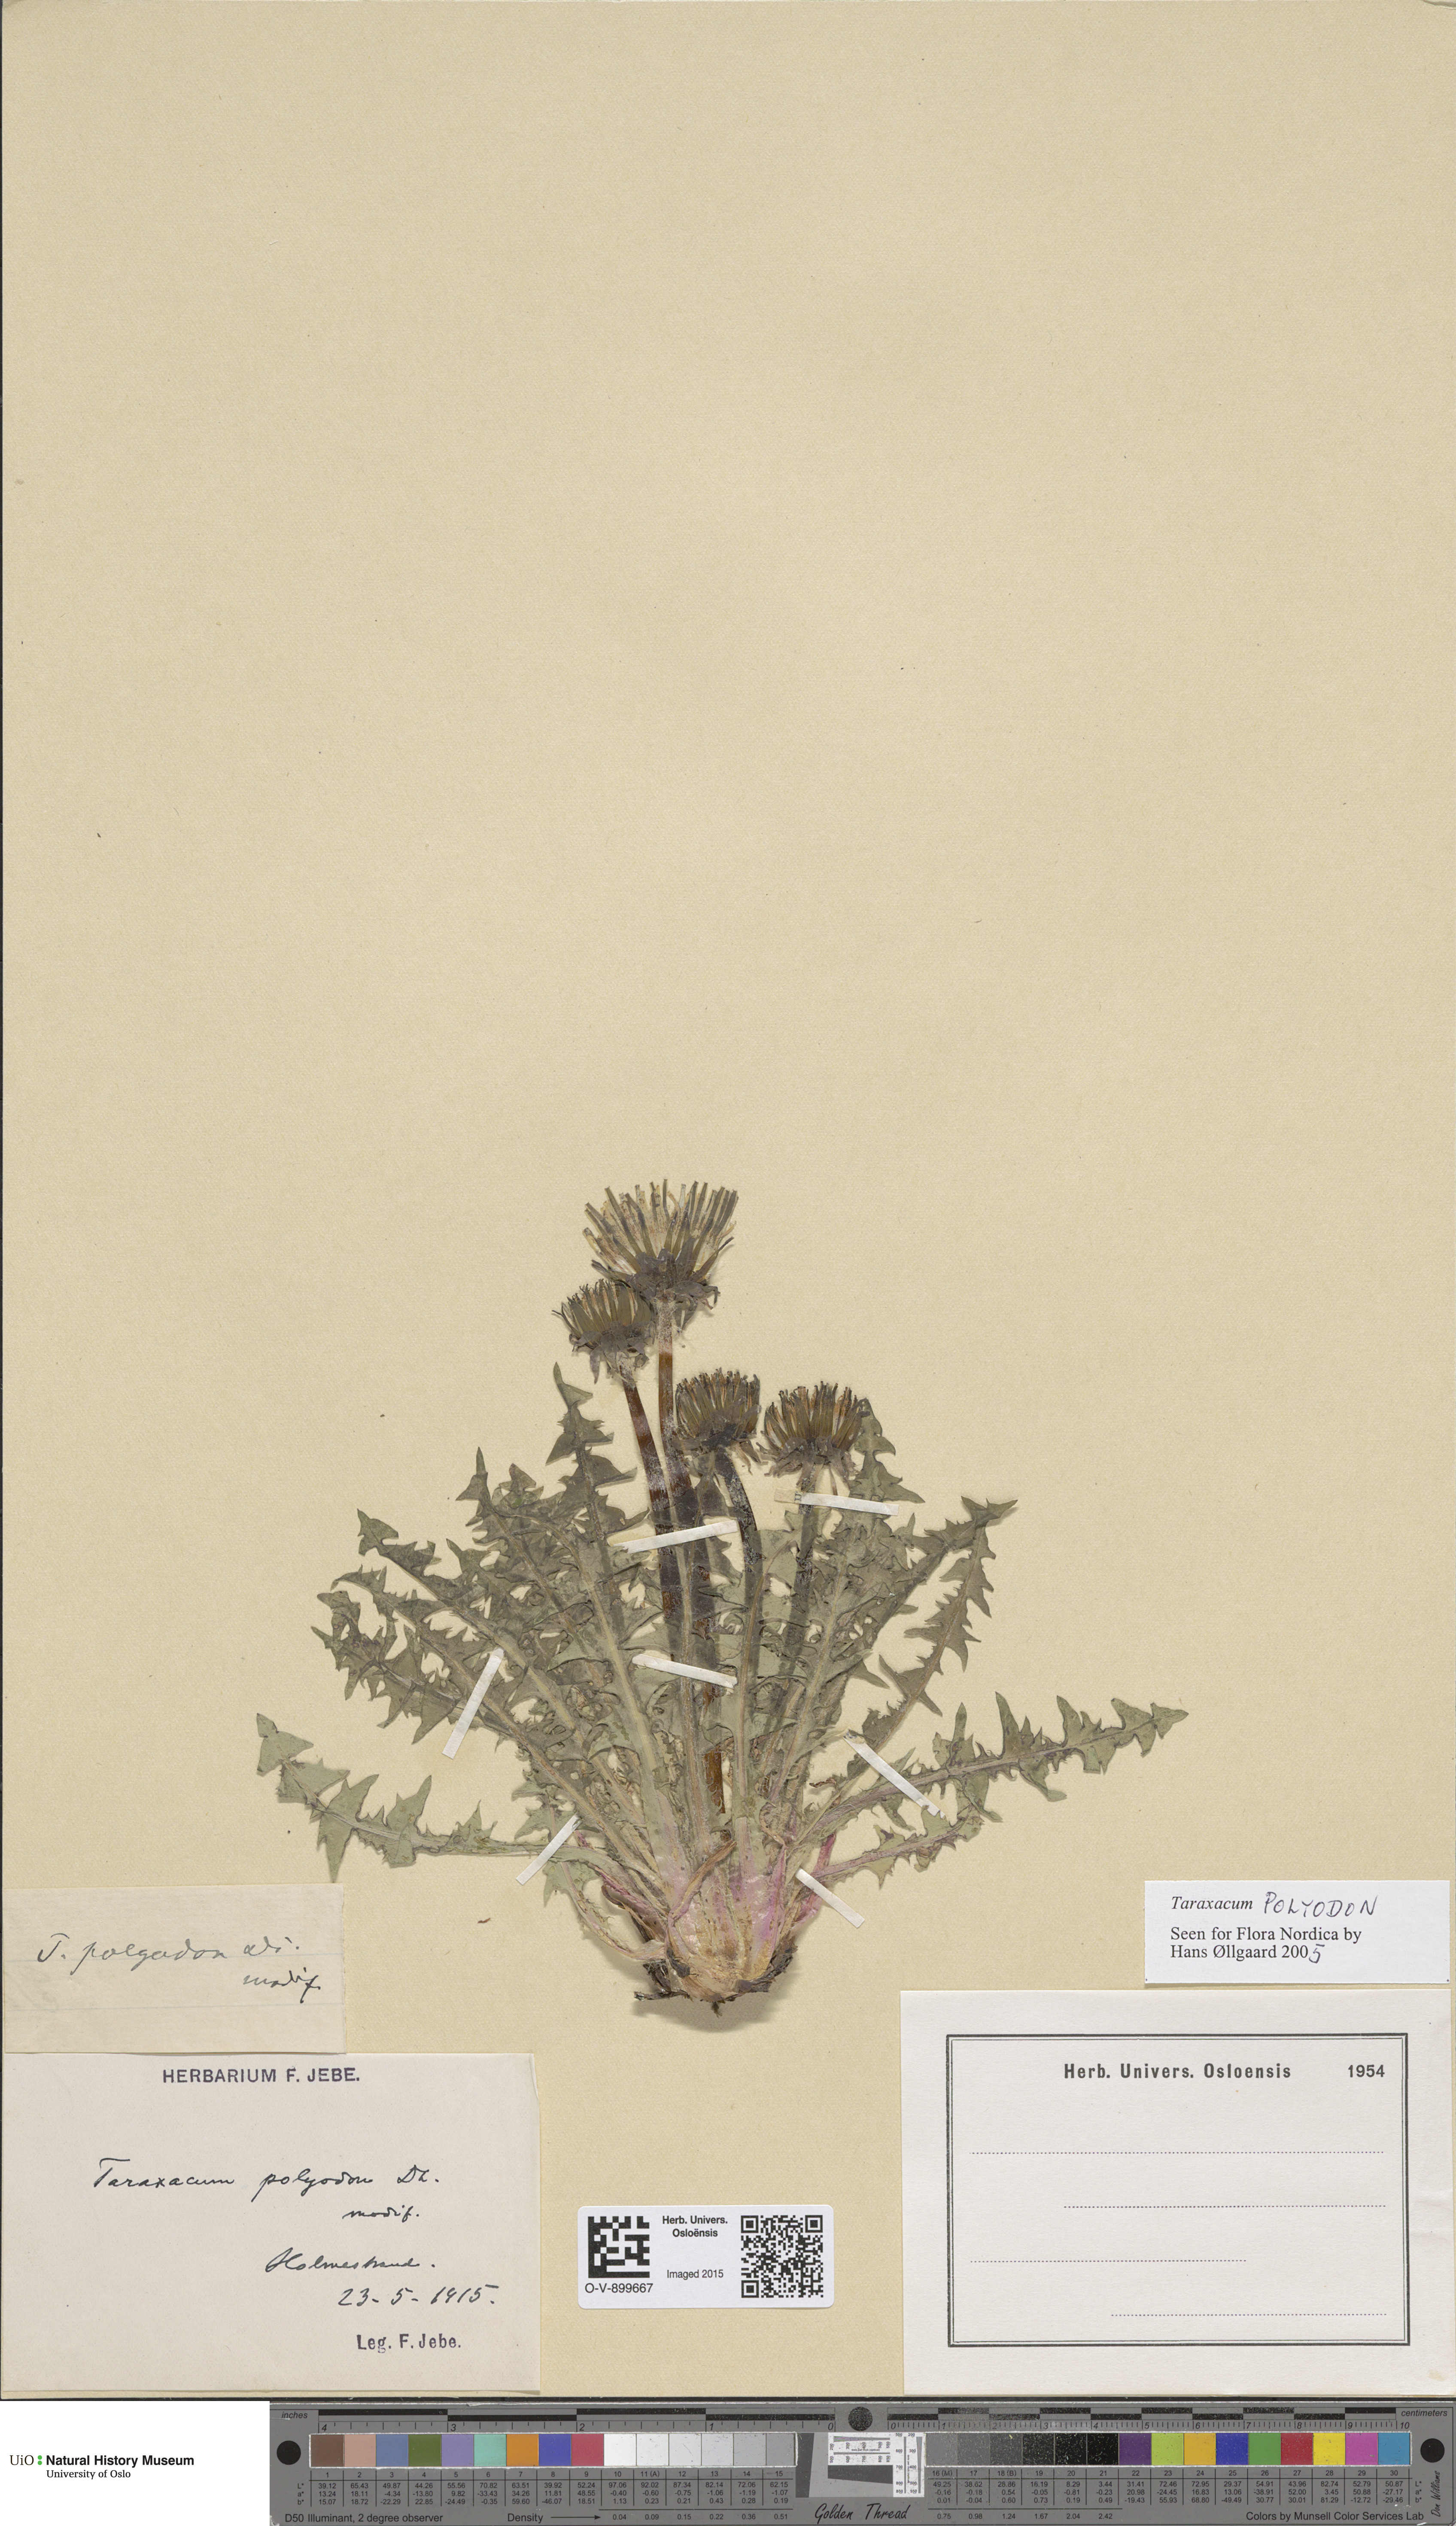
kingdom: Plantae
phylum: Tracheophyta
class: Magnoliopsida
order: Asterales
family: Asteraceae
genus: Taraxacum
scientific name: Taraxacum polyodon
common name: Common dandelion
